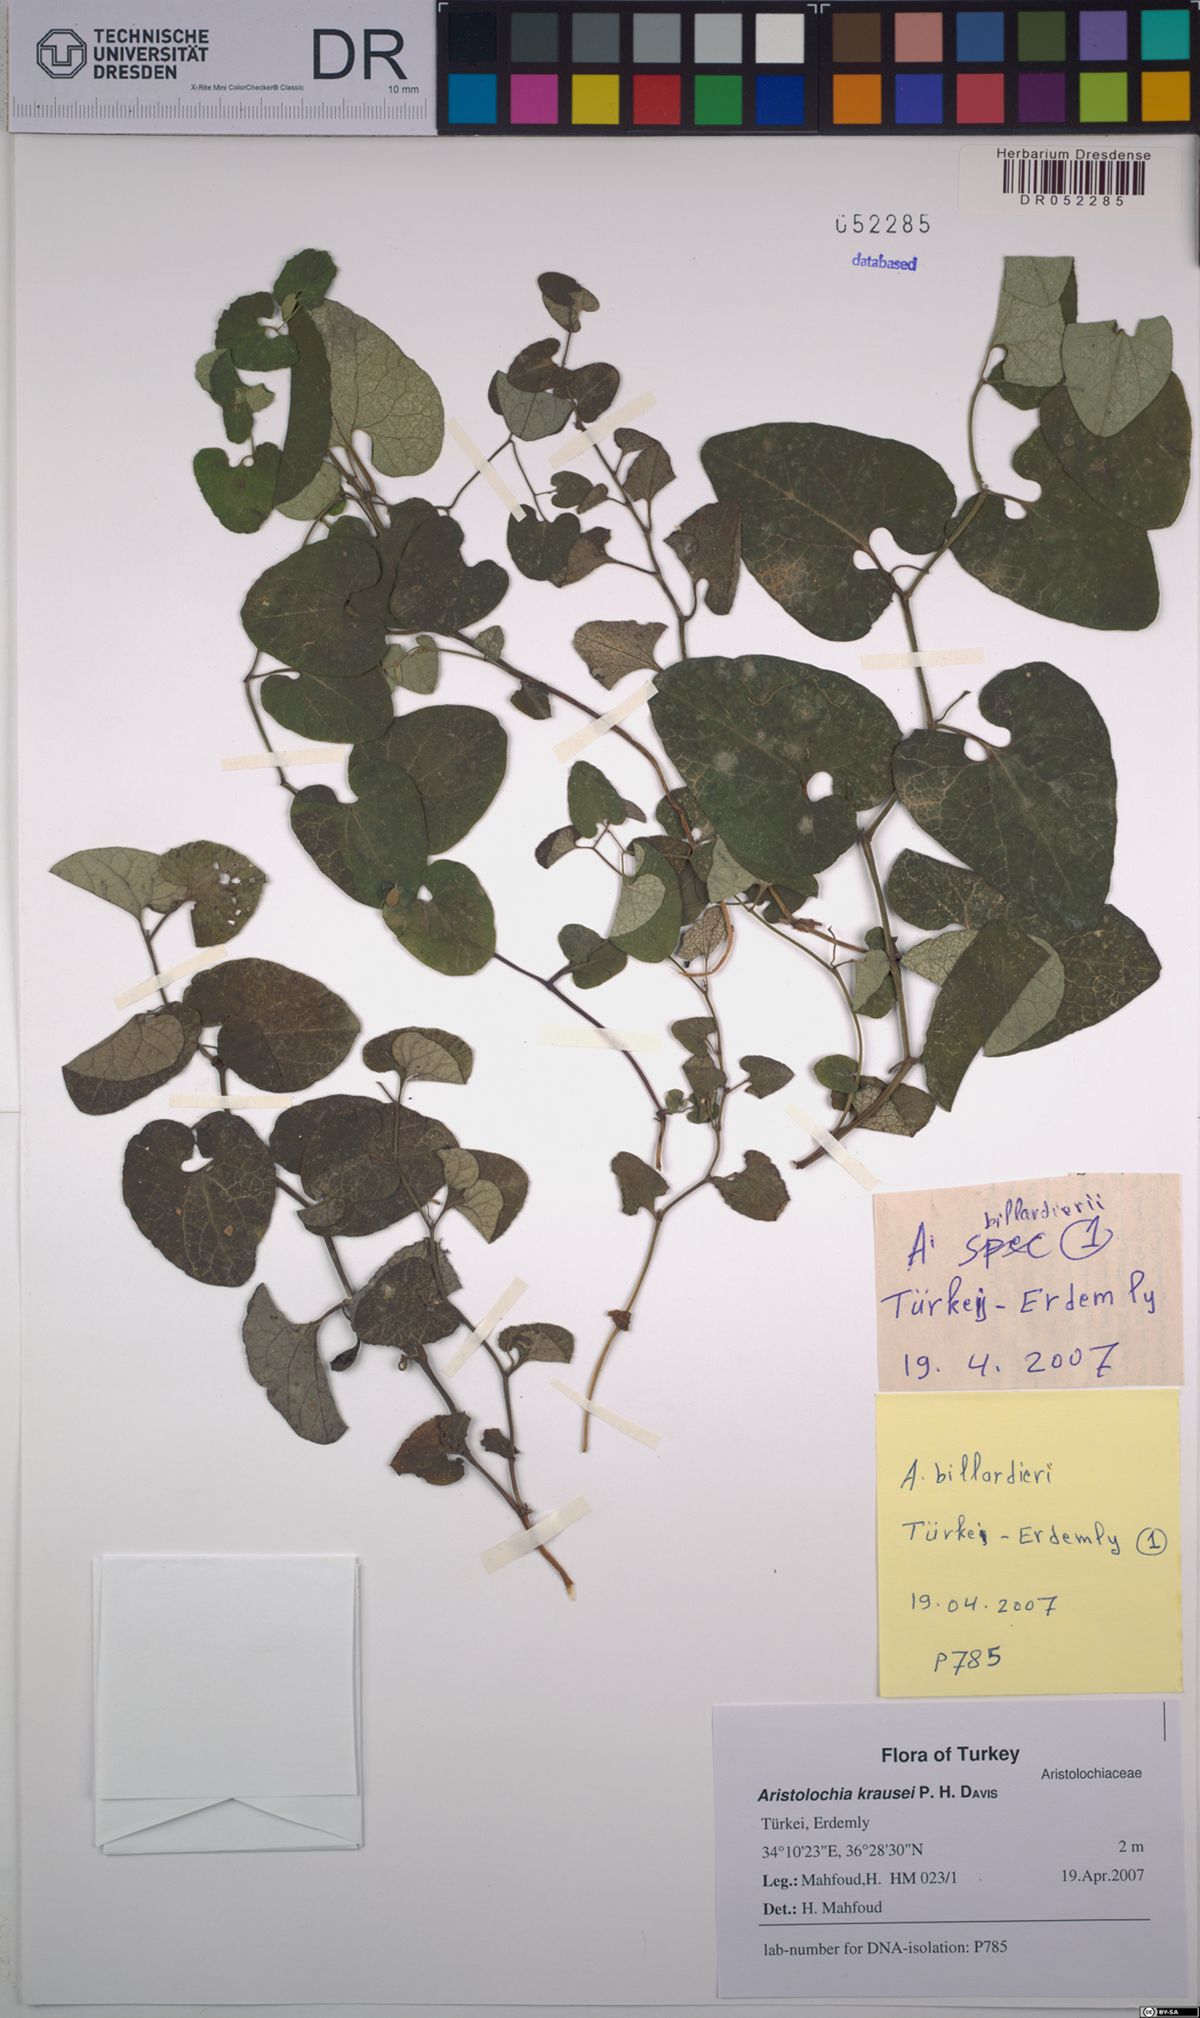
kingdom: Plantae
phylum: Tracheophyta
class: Magnoliopsida
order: Piperales
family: Aristolochiaceae
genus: Aristolochia
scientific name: Aristolochia krausei
